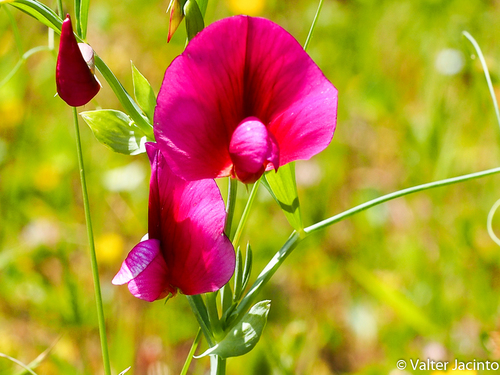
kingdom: Plantae
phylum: Tracheophyta
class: Magnoliopsida
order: Fabales
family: Fabaceae
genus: Lathyrus
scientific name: Lathyrus tingitanus
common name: Tangier pea
